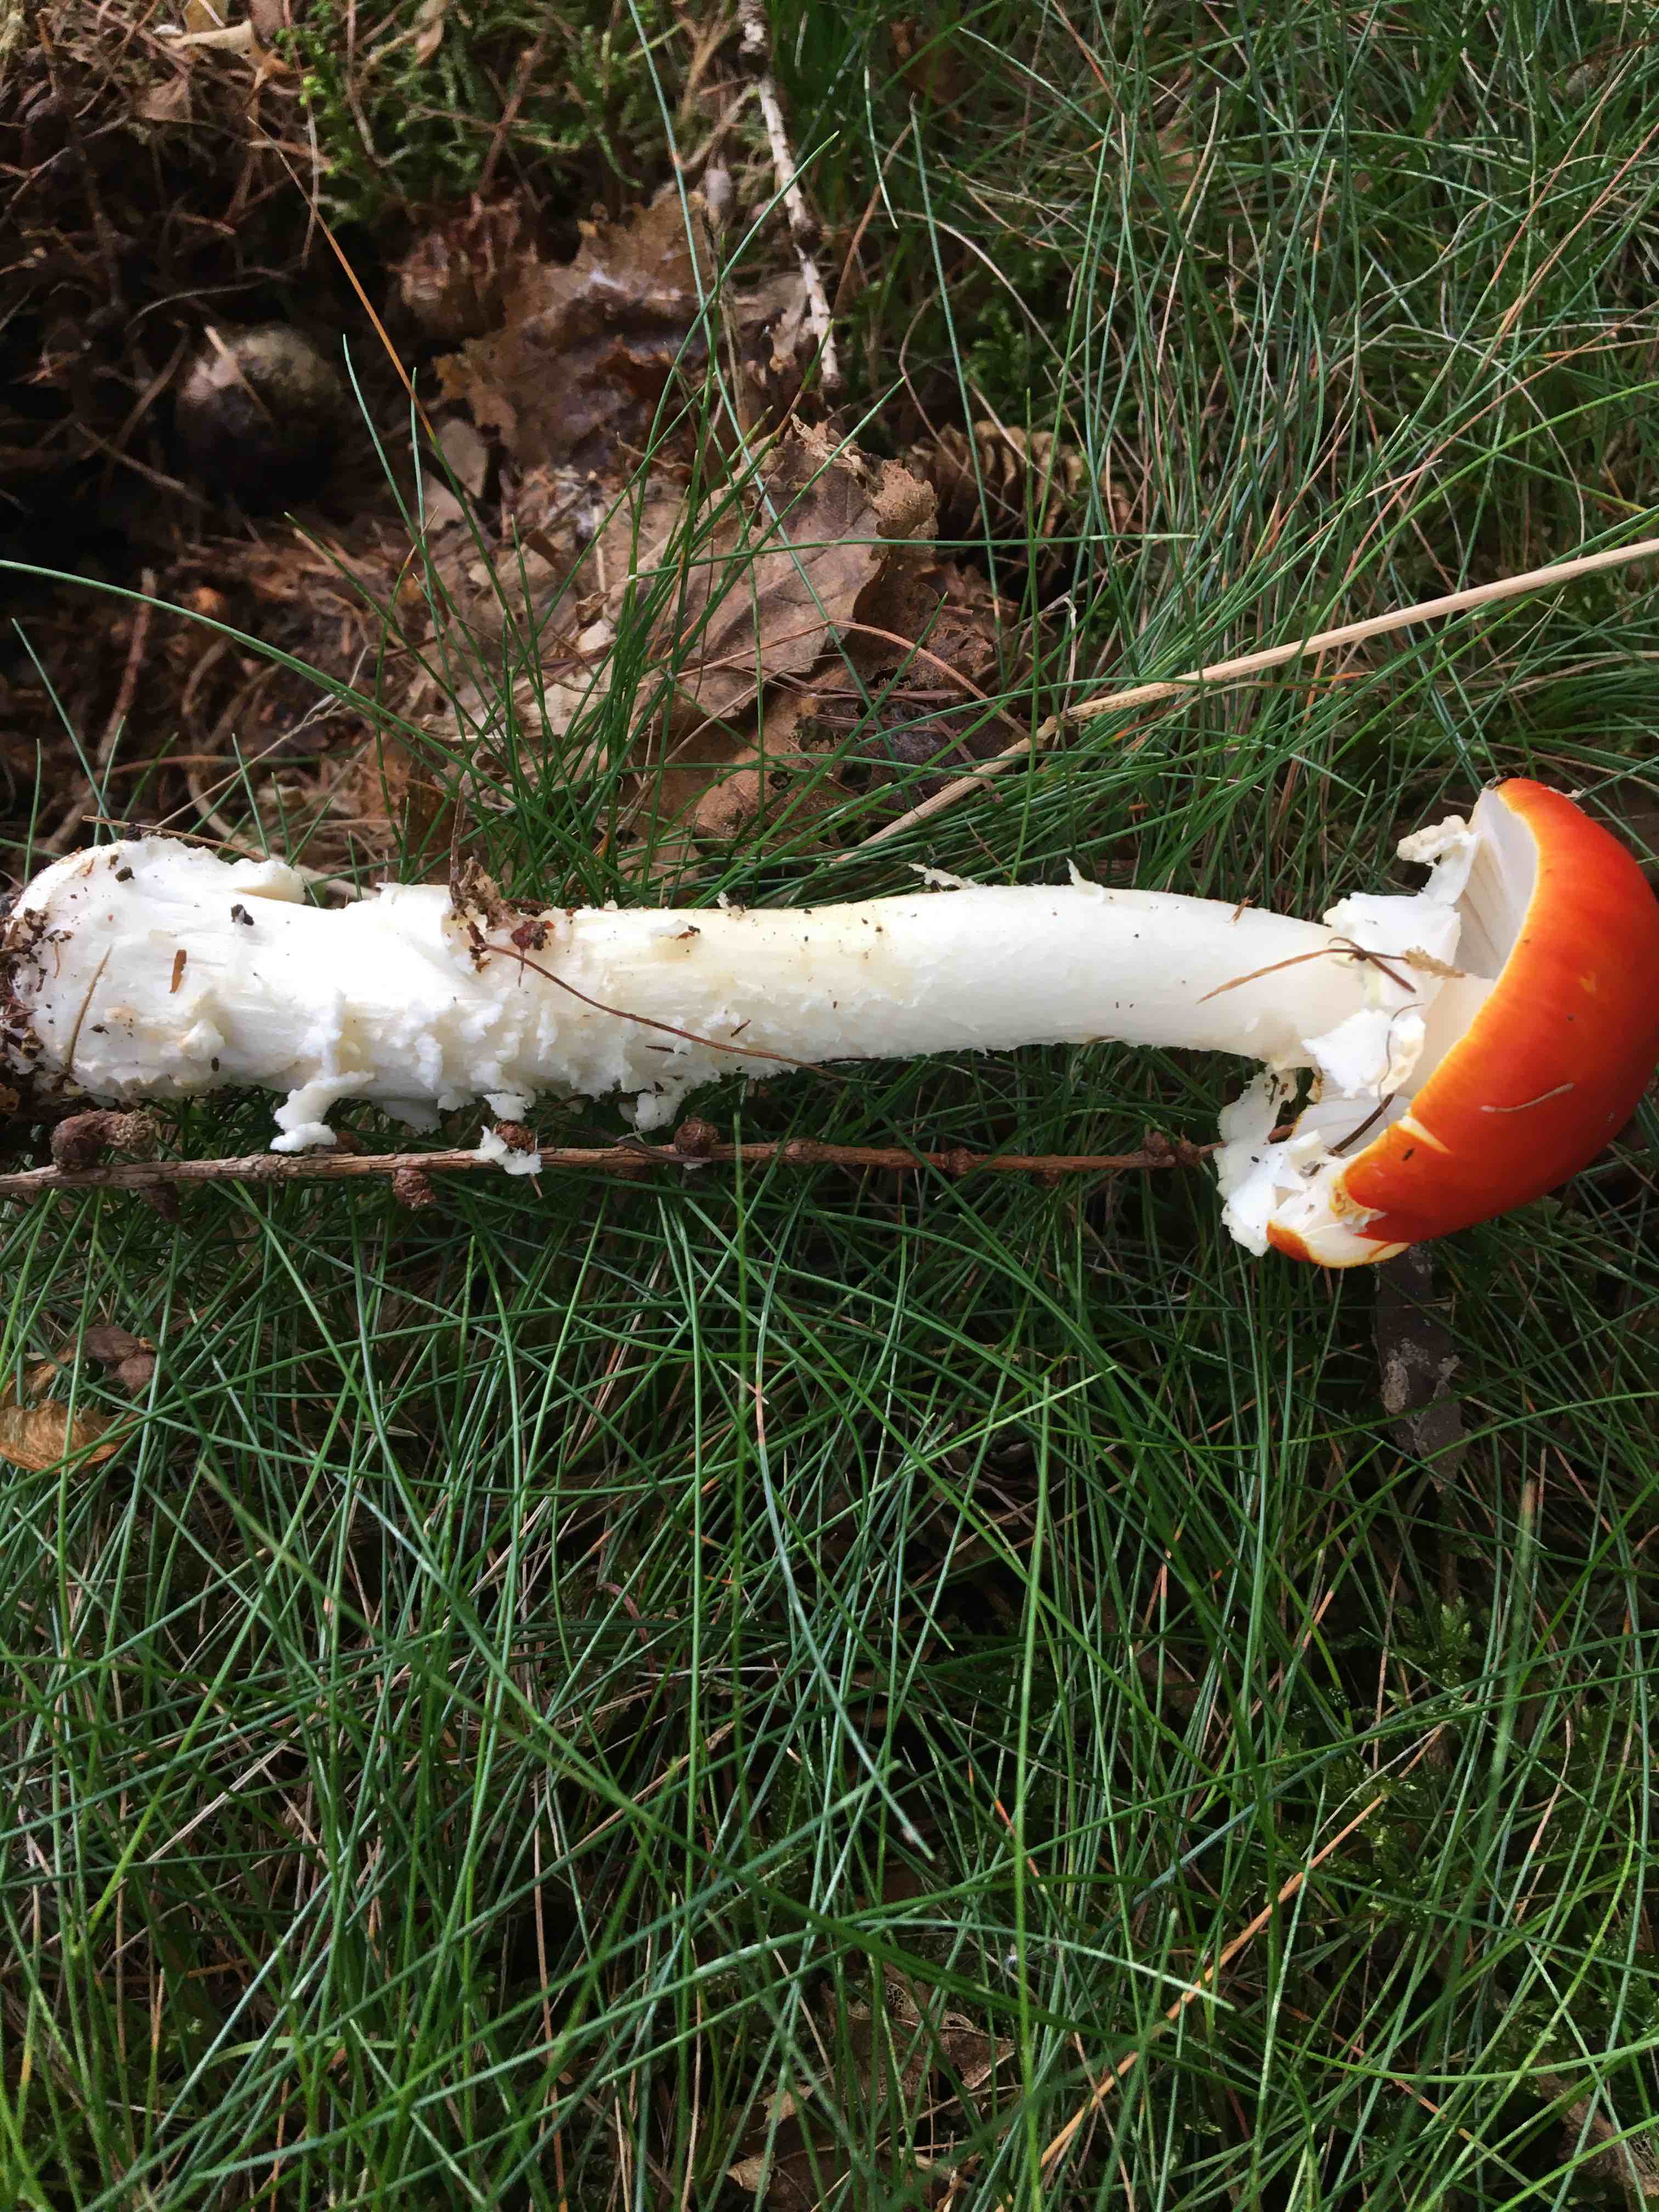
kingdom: Fungi
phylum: Basidiomycota
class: Agaricomycetes
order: Agaricales
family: Amanitaceae
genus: Amanita
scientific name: Amanita muscaria
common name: rød fluesvamp
